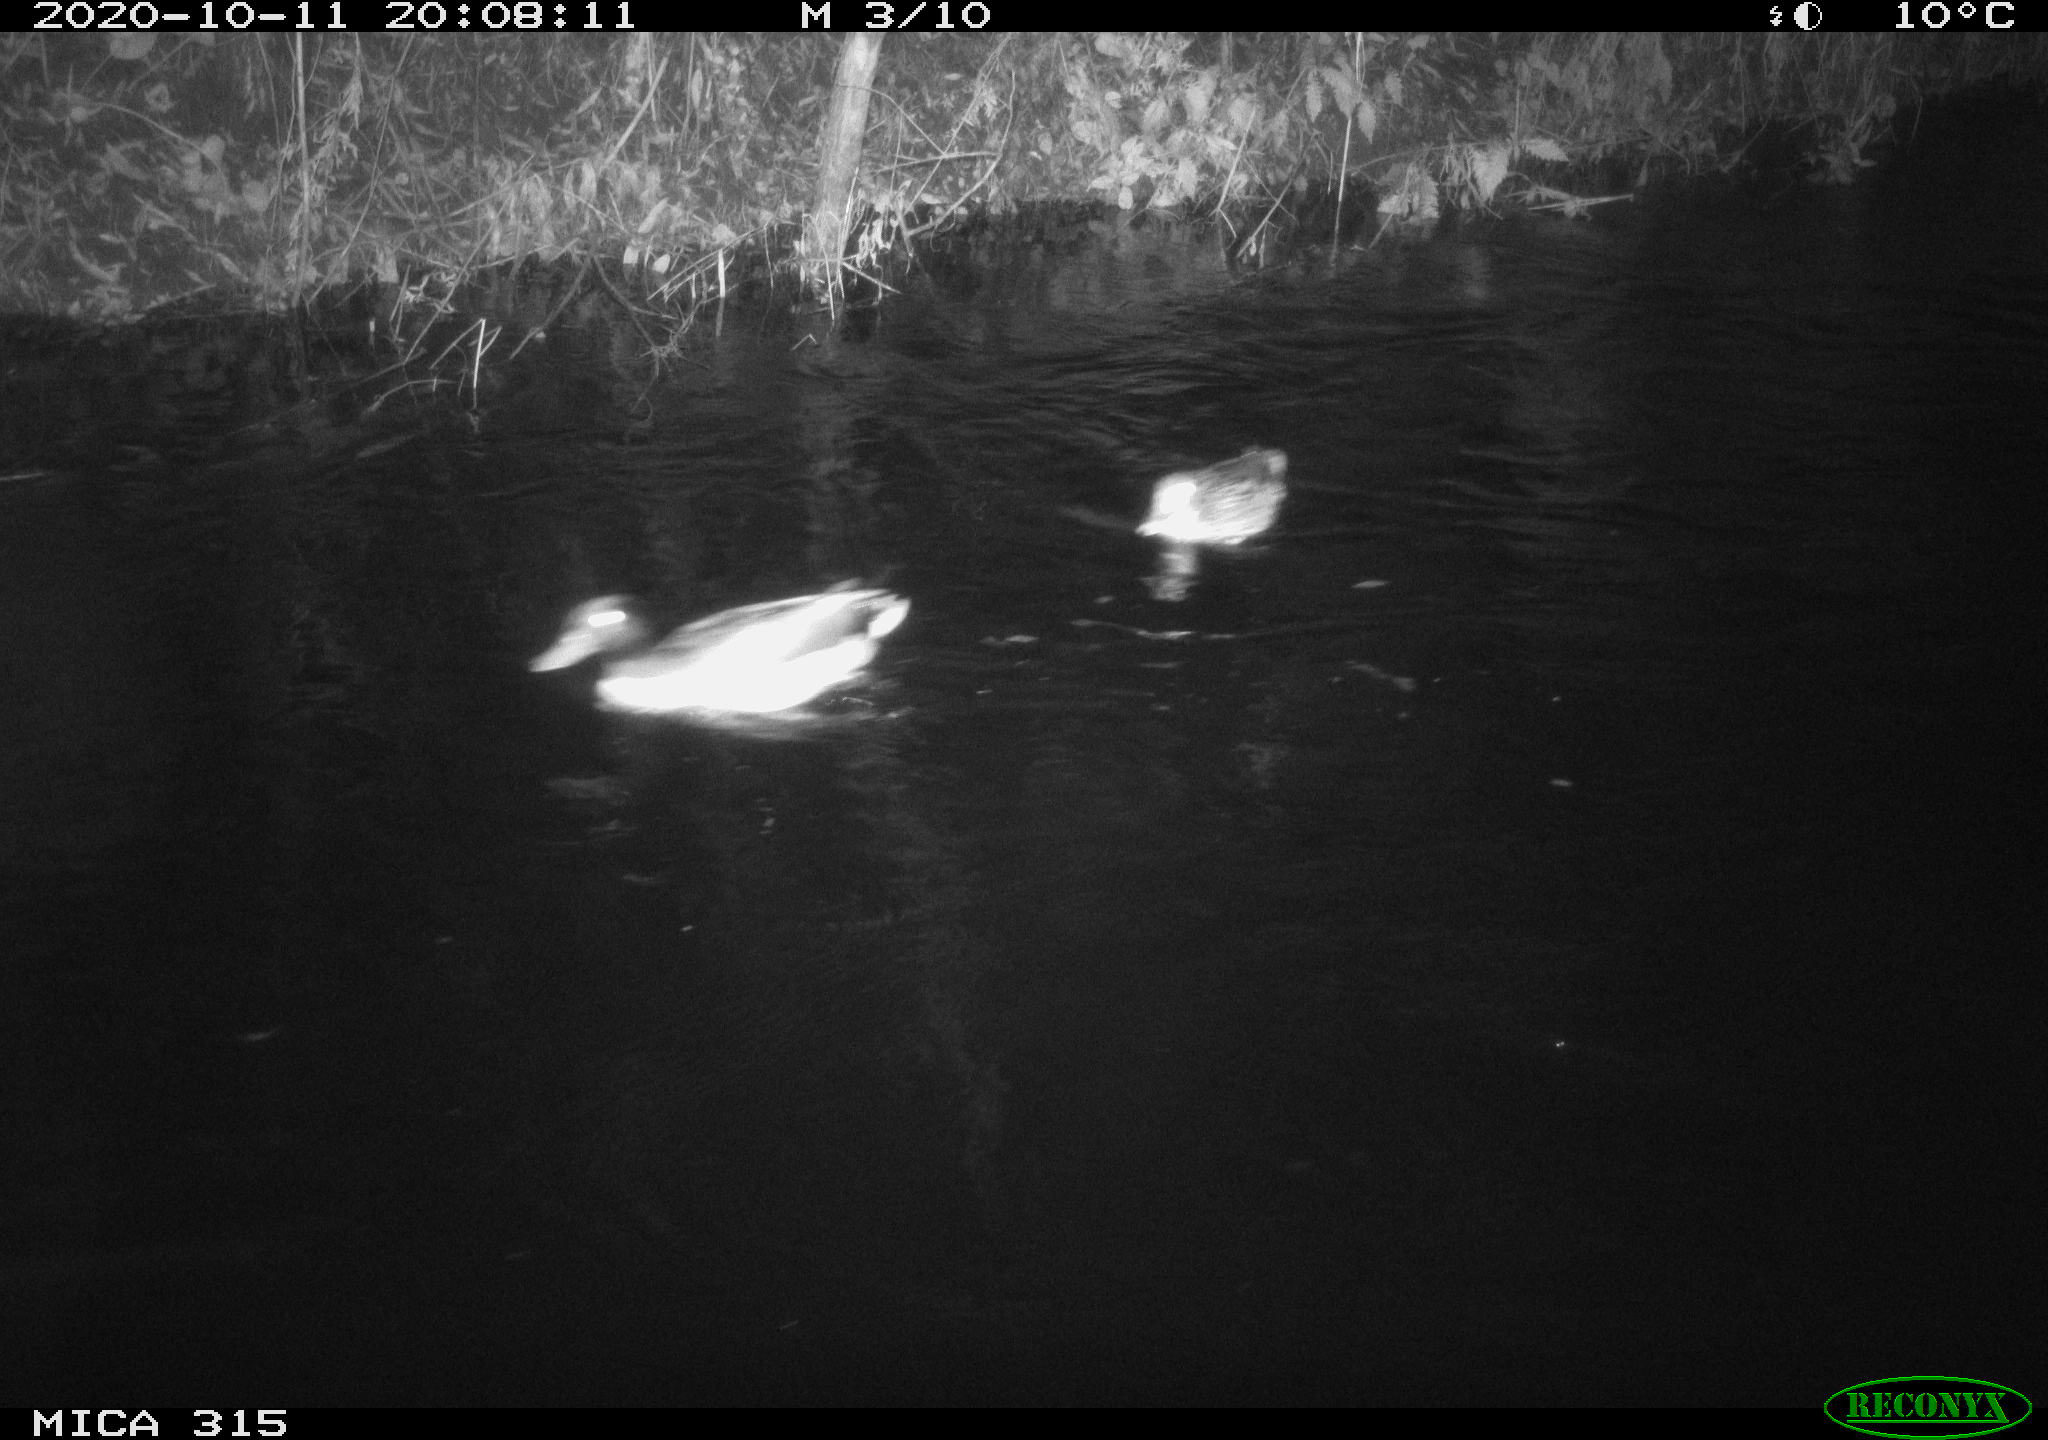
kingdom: Animalia
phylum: Chordata
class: Aves
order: Anseriformes
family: Anatidae
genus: Anas
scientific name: Anas platyrhynchos
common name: Mallard
